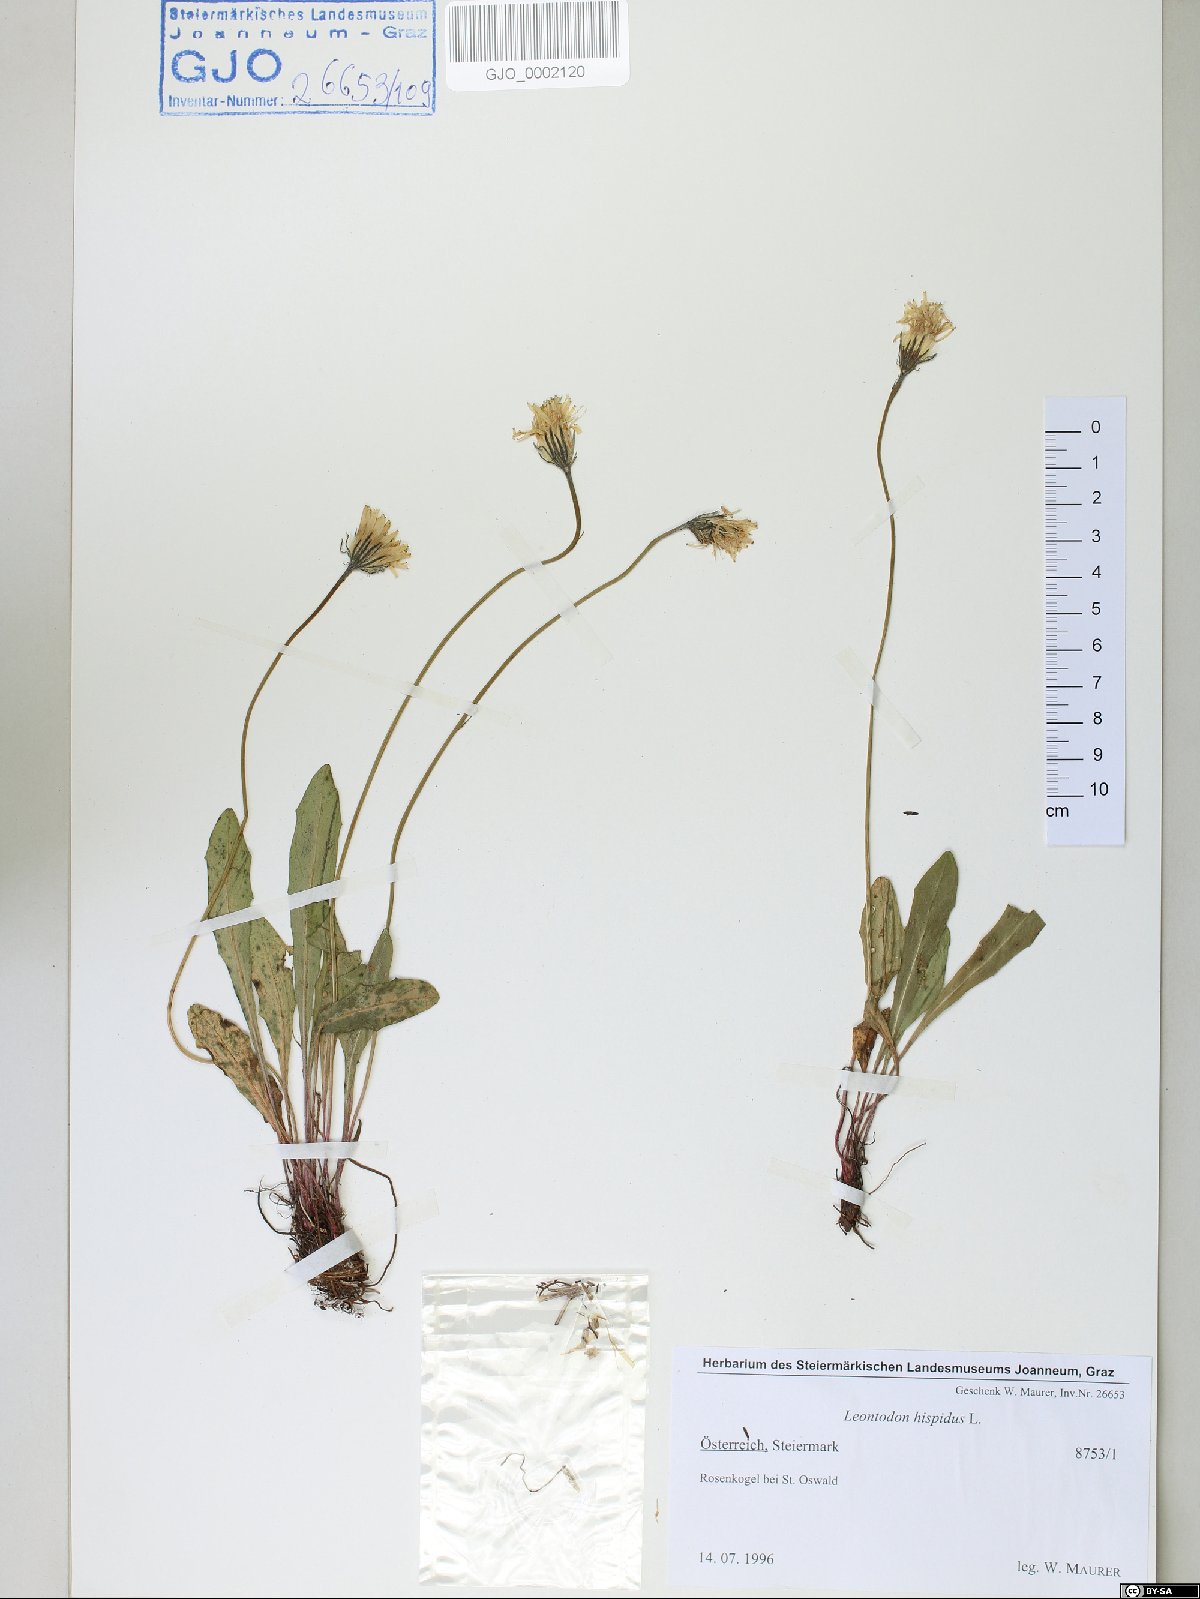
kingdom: Plantae
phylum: Tracheophyta
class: Magnoliopsida
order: Asterales
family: Asteraceae
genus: Leontodon
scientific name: Leontodon hispidus
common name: Rough hawkbit
